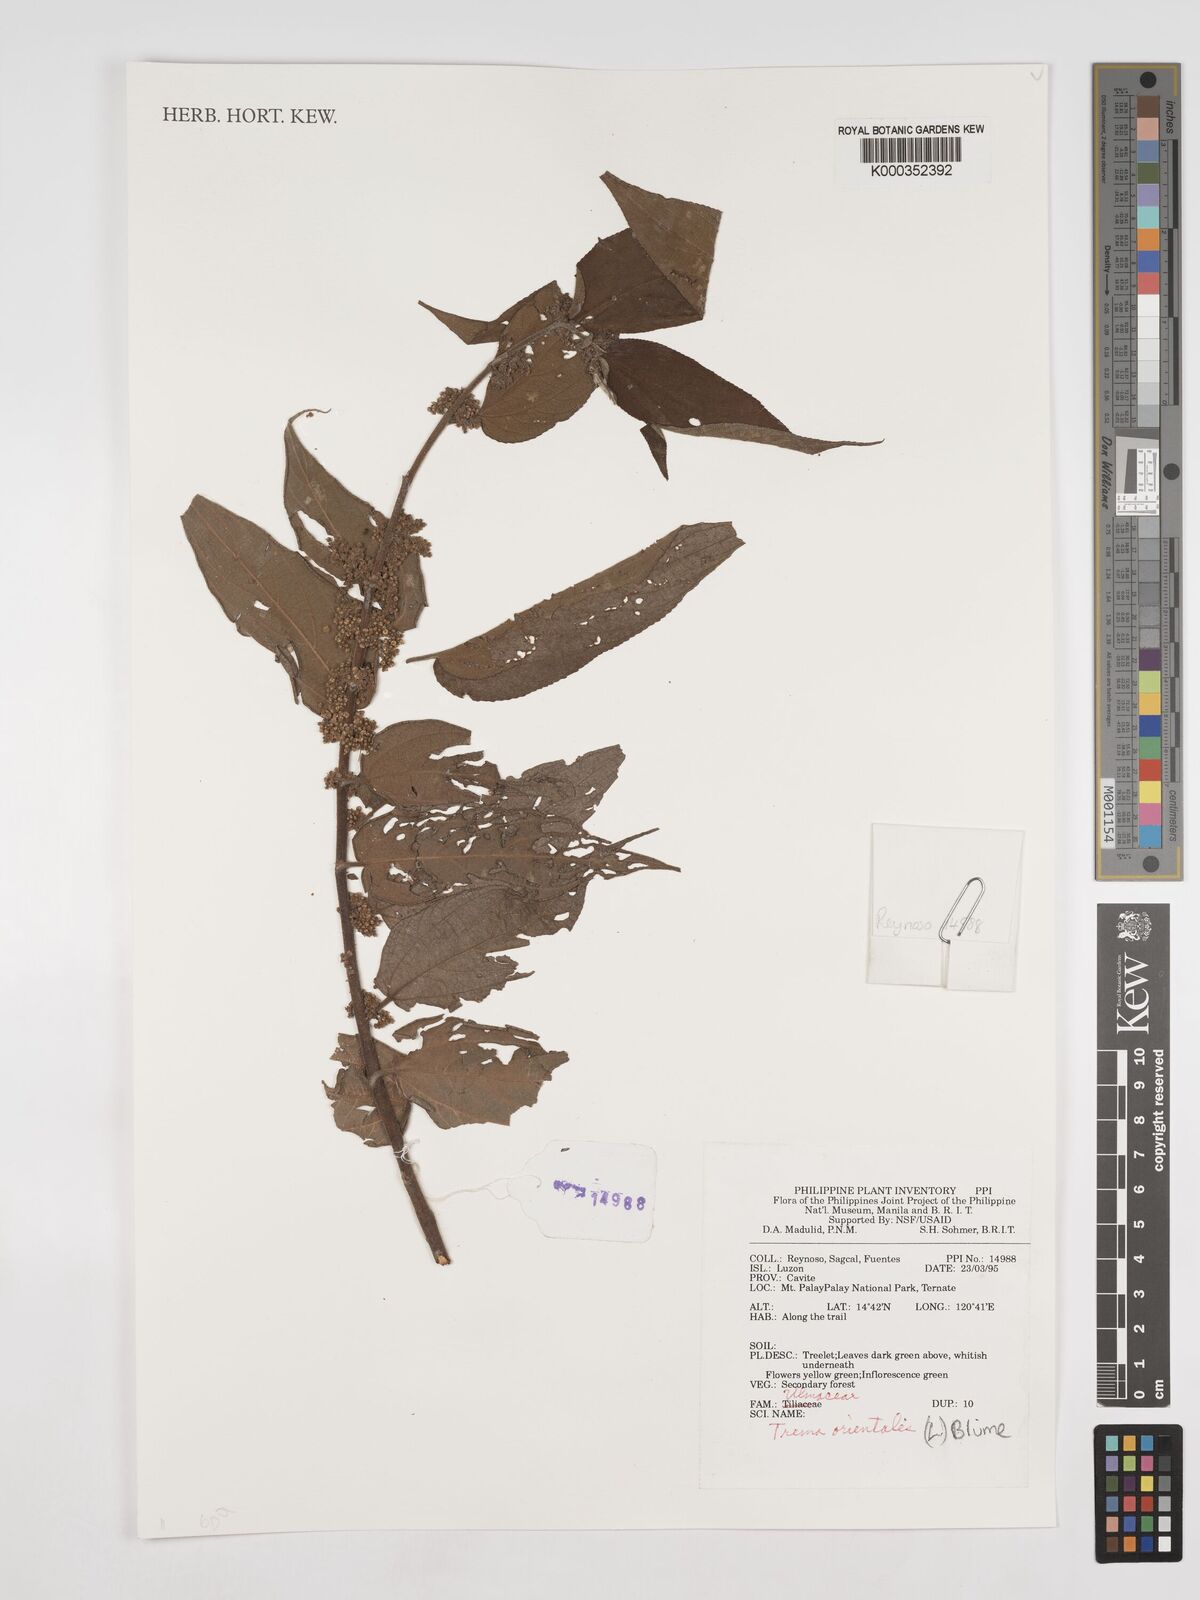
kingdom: Plantae
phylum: Tracheophyta
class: Magnoliopsida
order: Rosales
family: Cannabaceae
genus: Trema
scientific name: Trema
